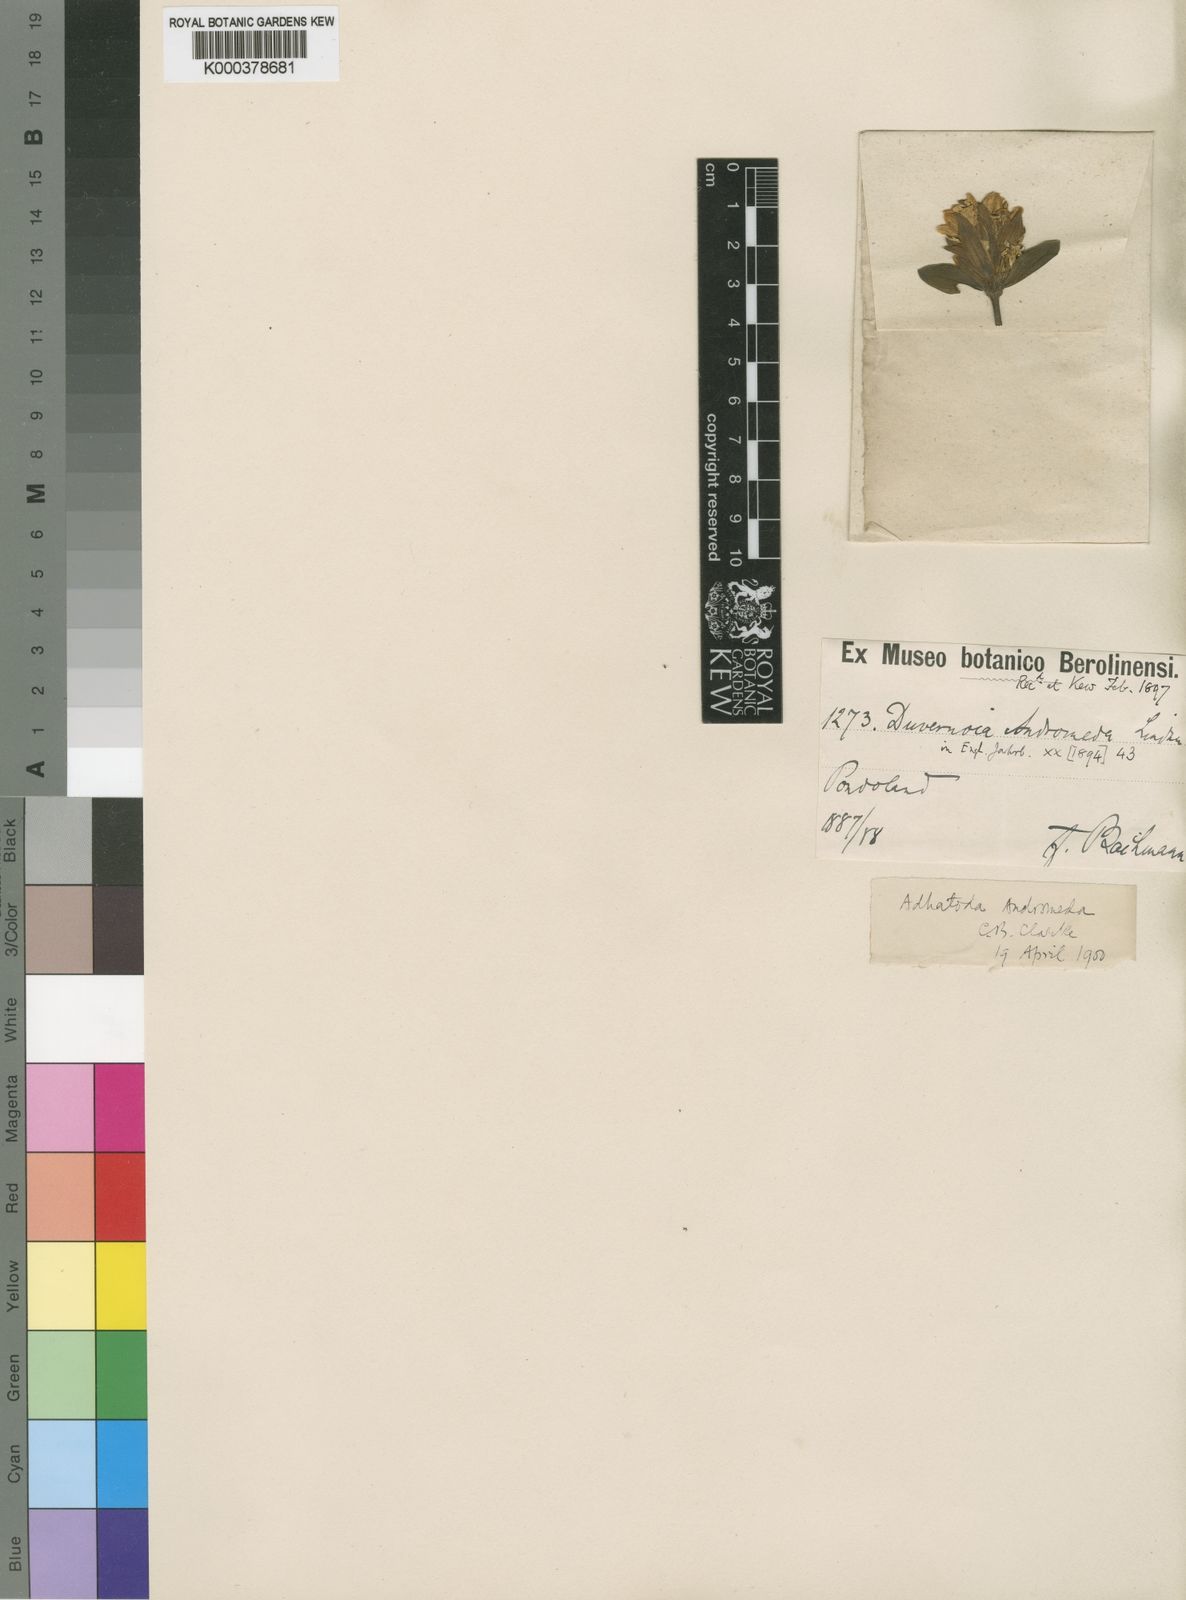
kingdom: Plantae
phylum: Tracheophyta
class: Magnoliopsida
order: Lamiales
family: Acanthaceae
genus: Justicia
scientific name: Justicia
